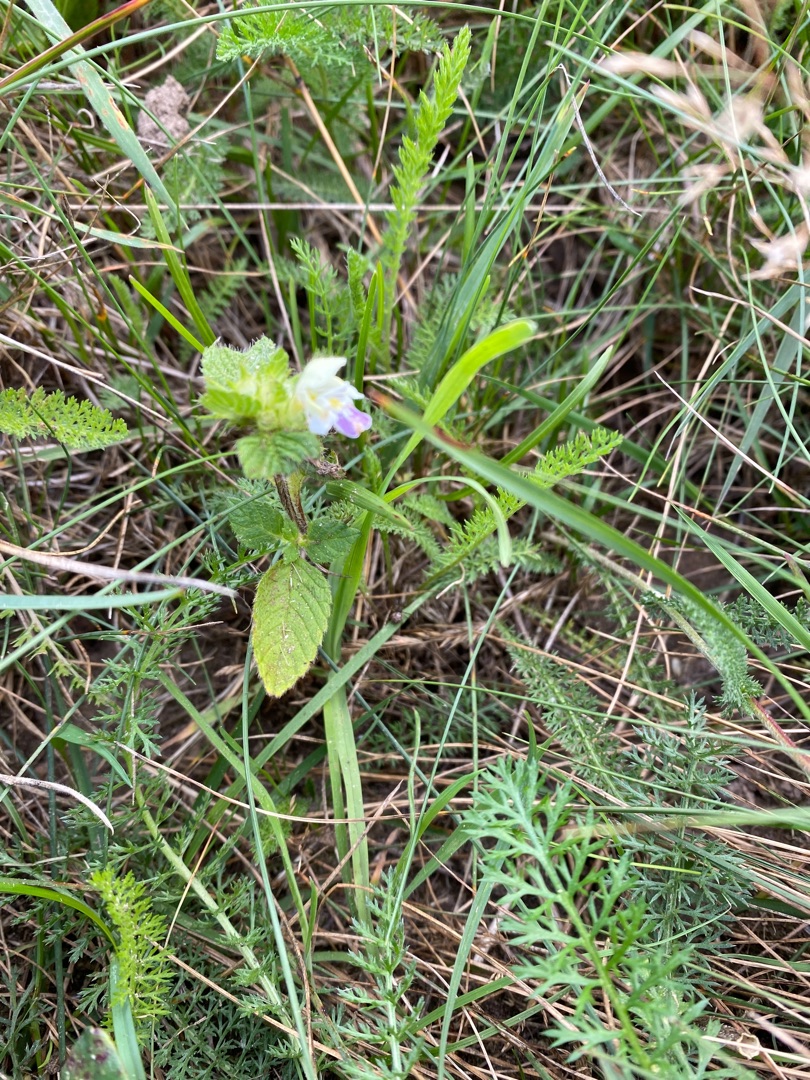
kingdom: Plantae
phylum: Tracheophyta
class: Magnoliopsida
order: Lamiales
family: Lamiaceae
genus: Galeopsis
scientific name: Galeopsis bifida
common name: Skov-hanekro
